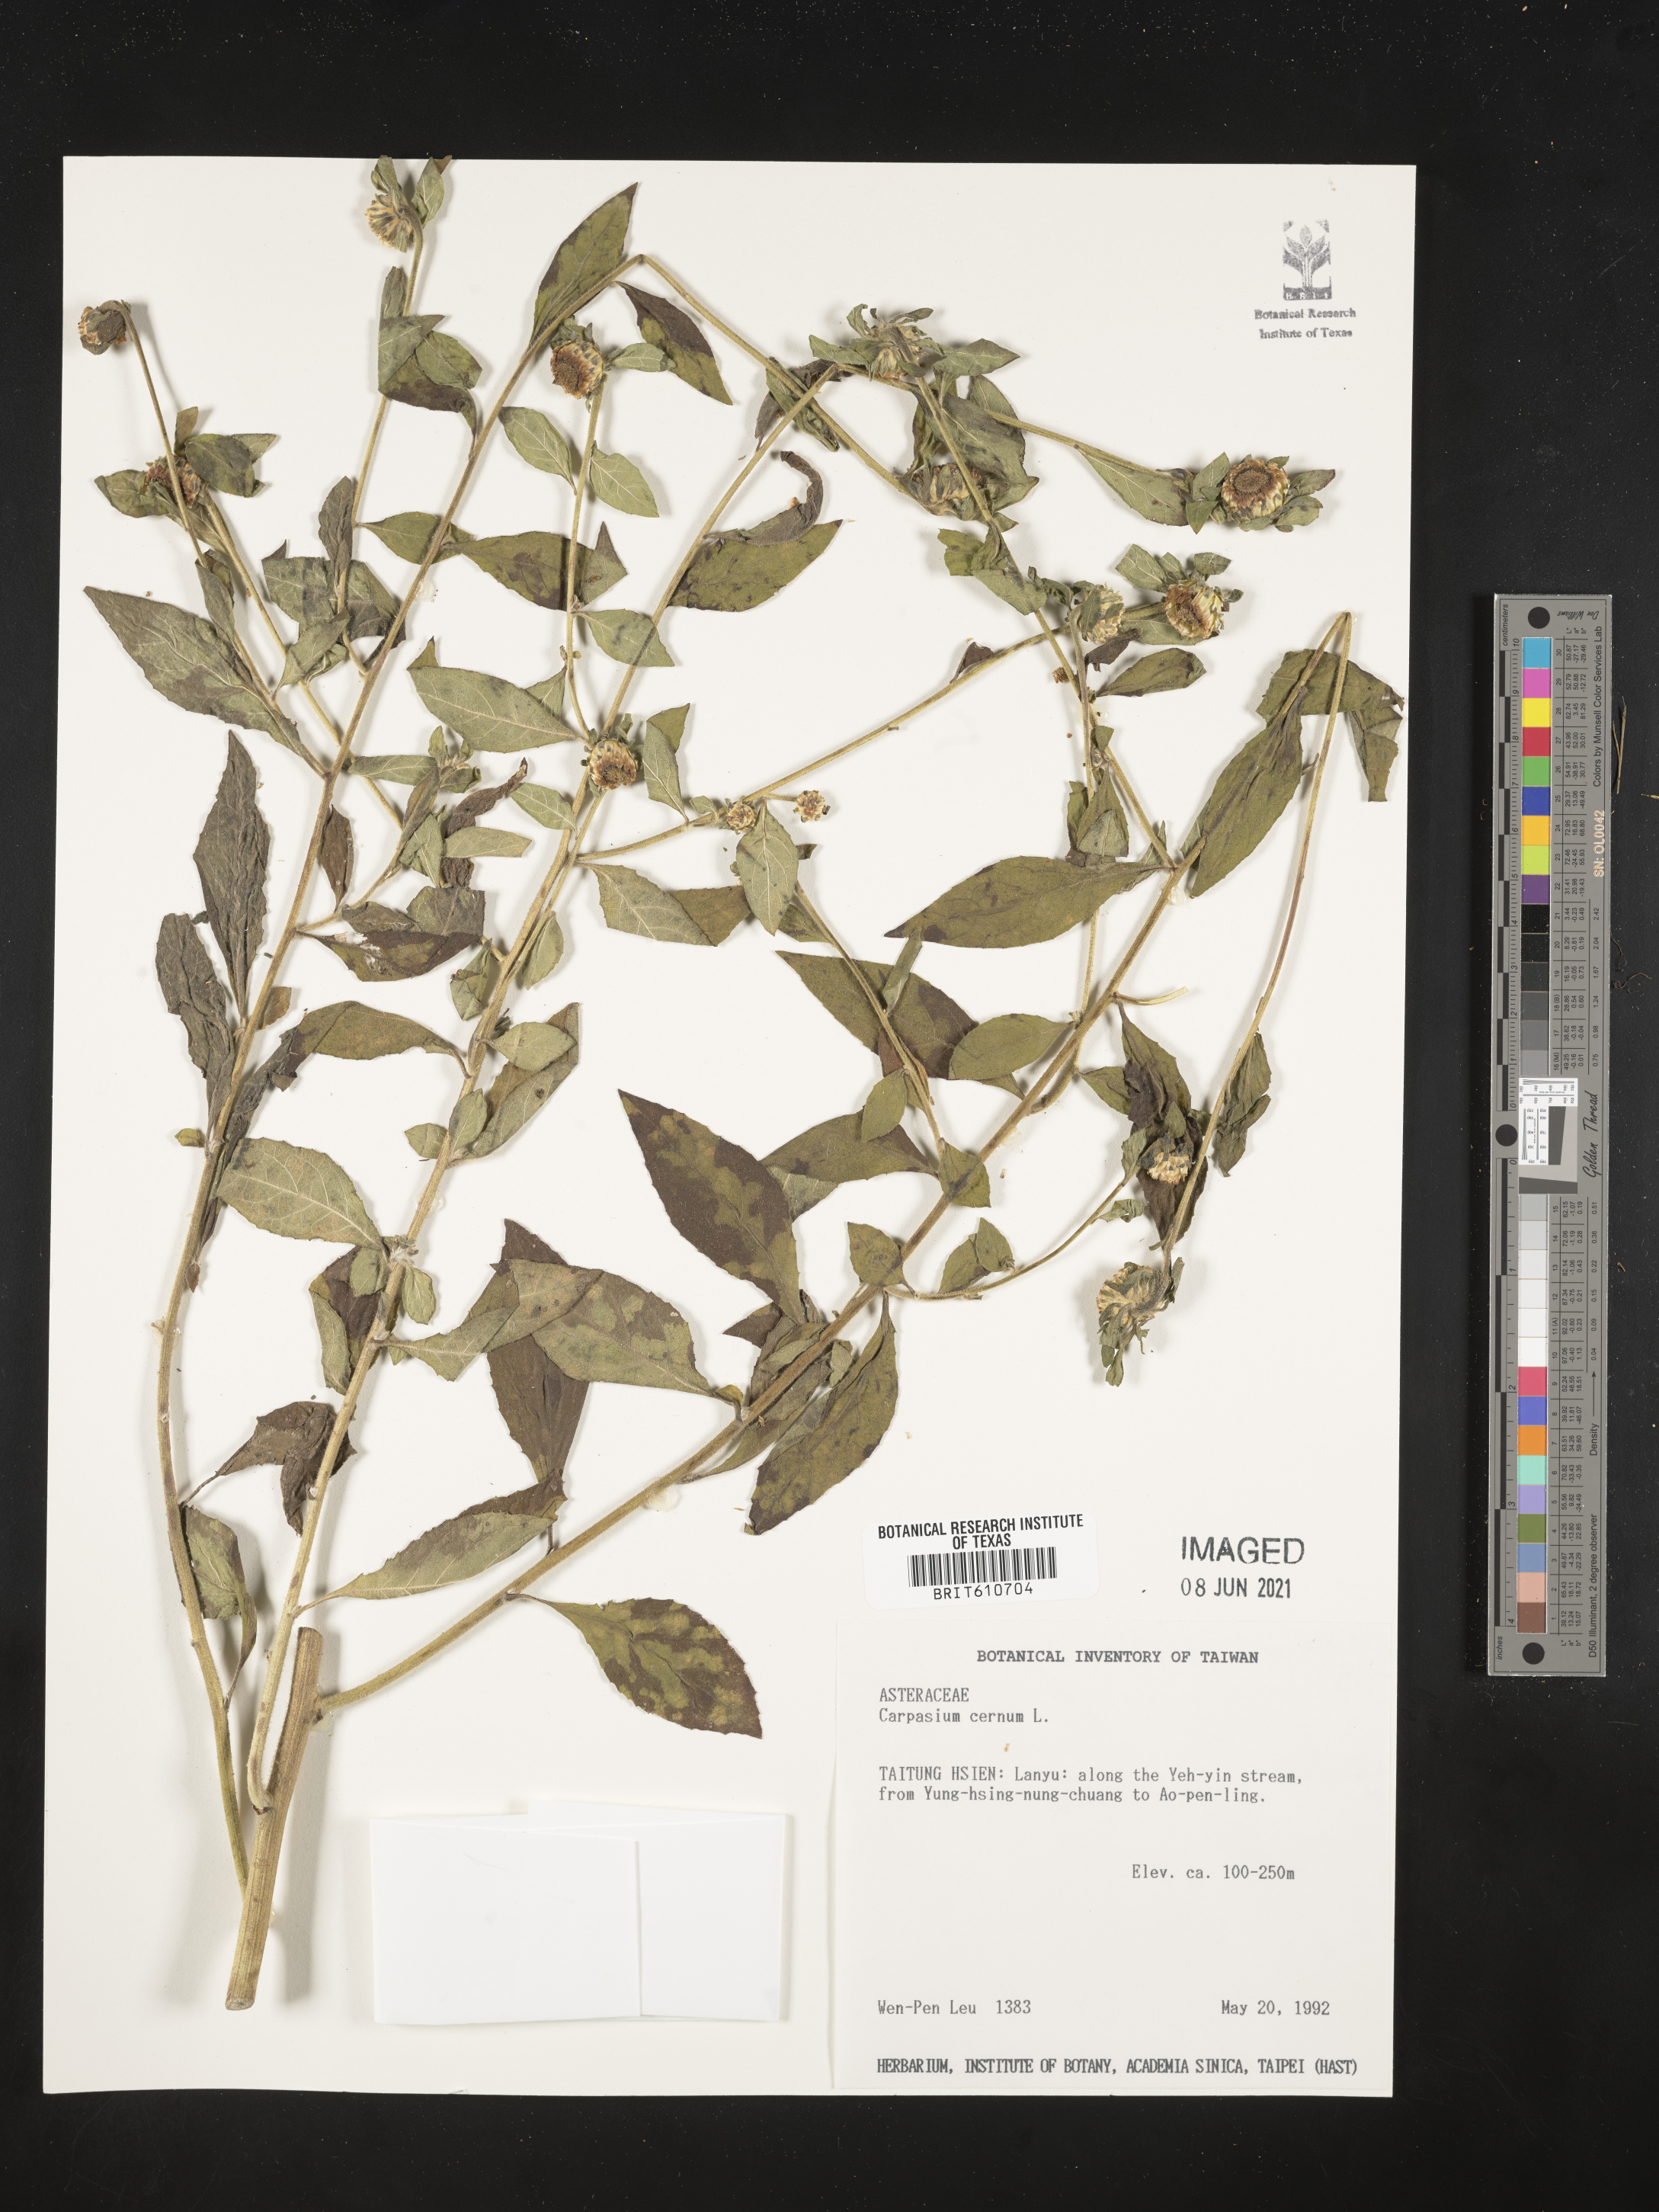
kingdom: Plantae
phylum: Tracheophyta
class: Magnoliopsida
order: Asterales
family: Asteraceae
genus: Carpesium
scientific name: Carpesium cernuum
